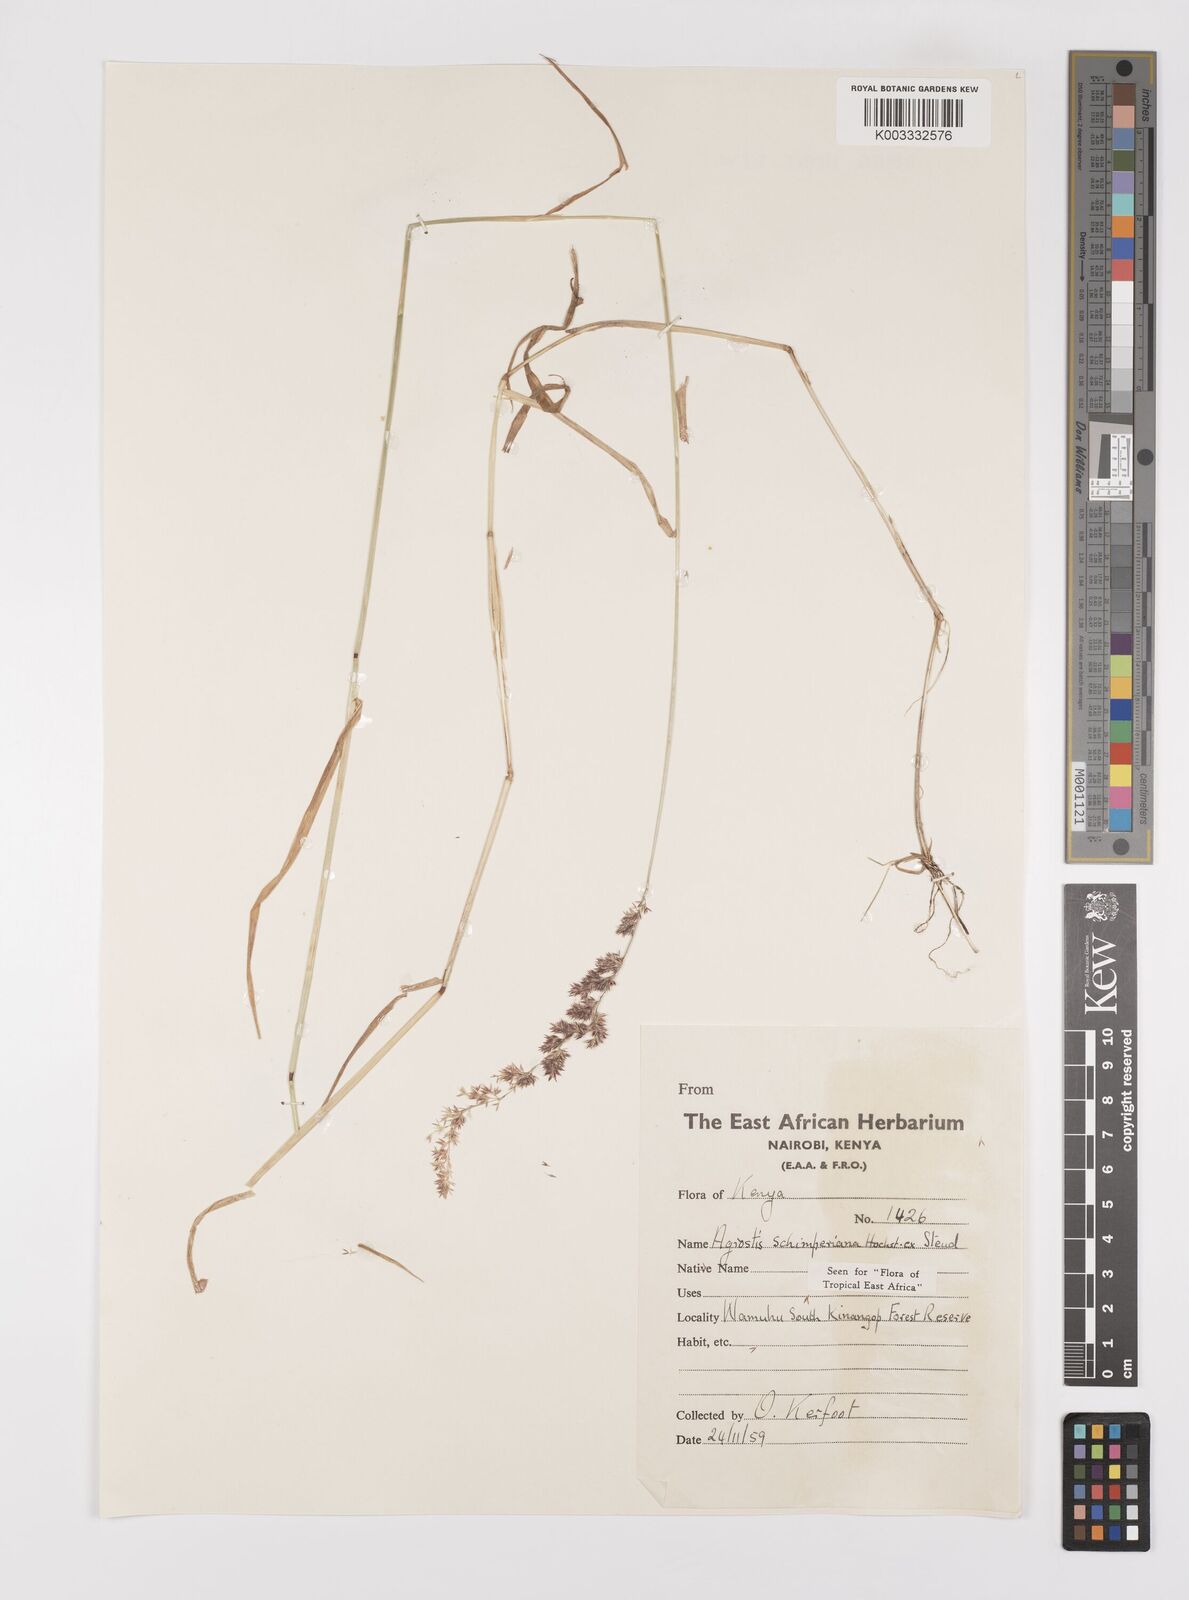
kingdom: Plantae
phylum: Tracheophyta
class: Liliopsida
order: Poales
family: Poaceae
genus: Polypogon
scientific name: Polypogon schimperianus
